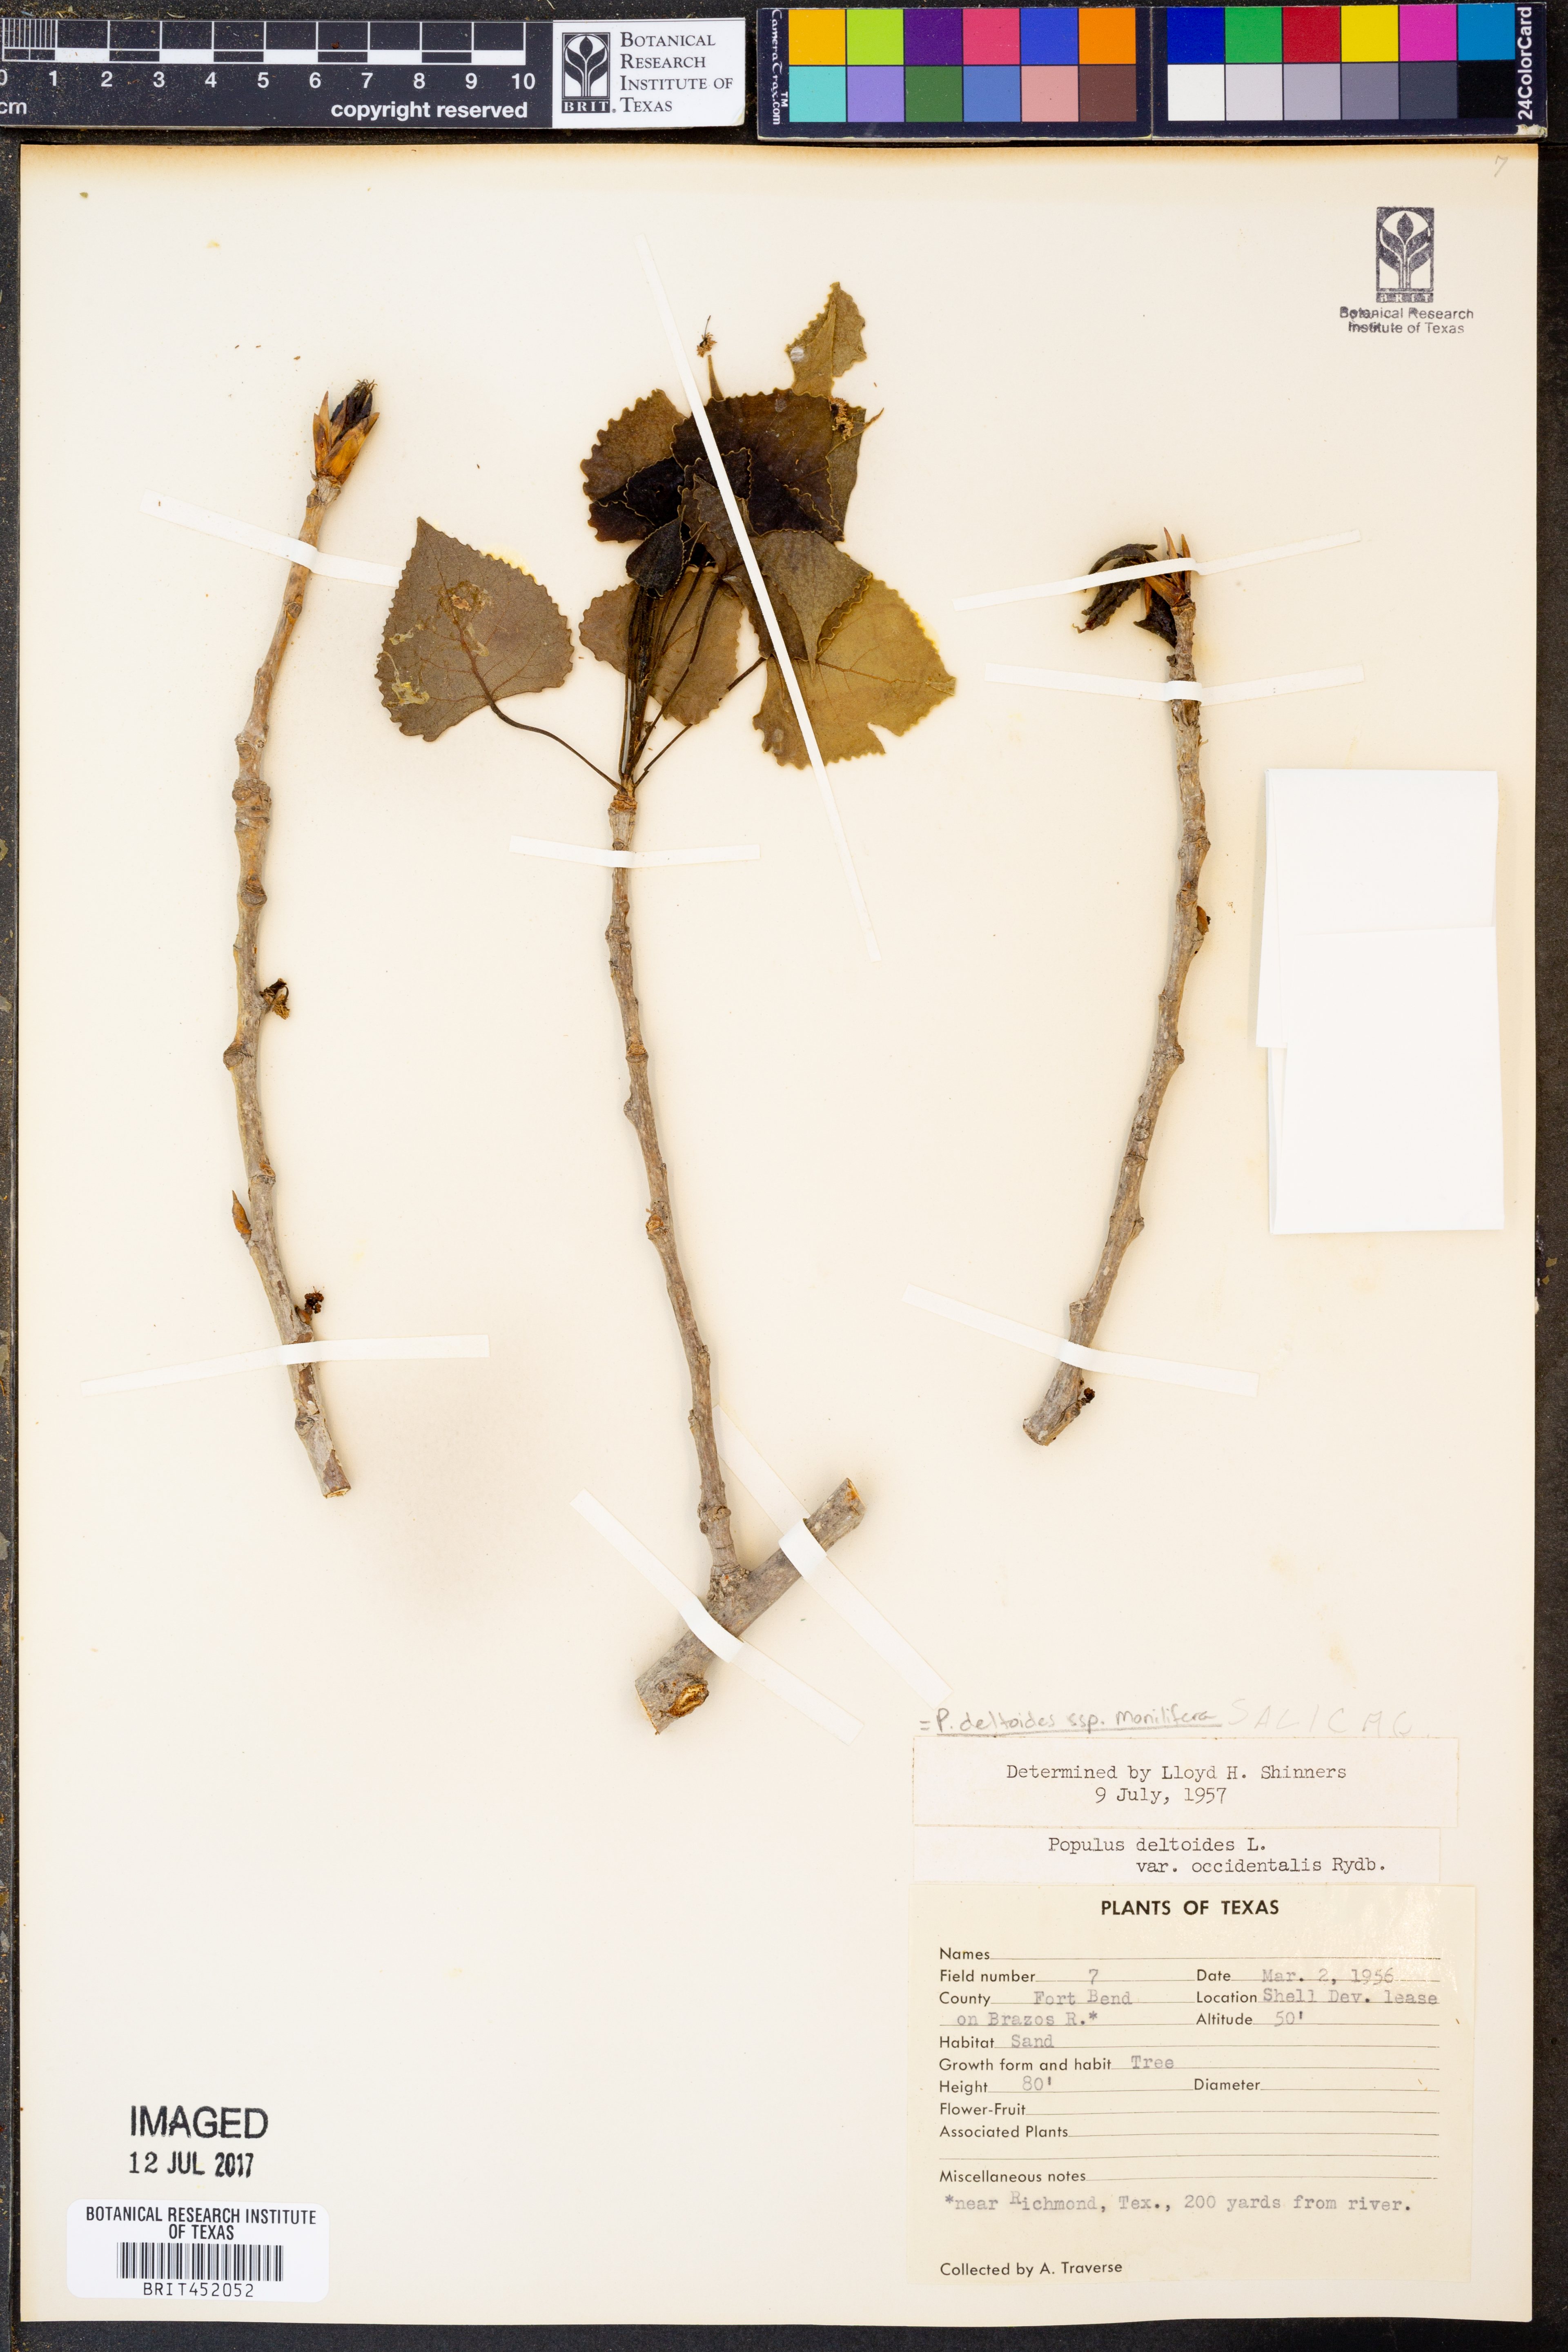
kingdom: Plantae
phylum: Tracheophyta
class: Magnoliopsida
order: Malpighiales
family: Salicaceae
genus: Populus
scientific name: Populus deltoides
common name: Eastern cottonwood
